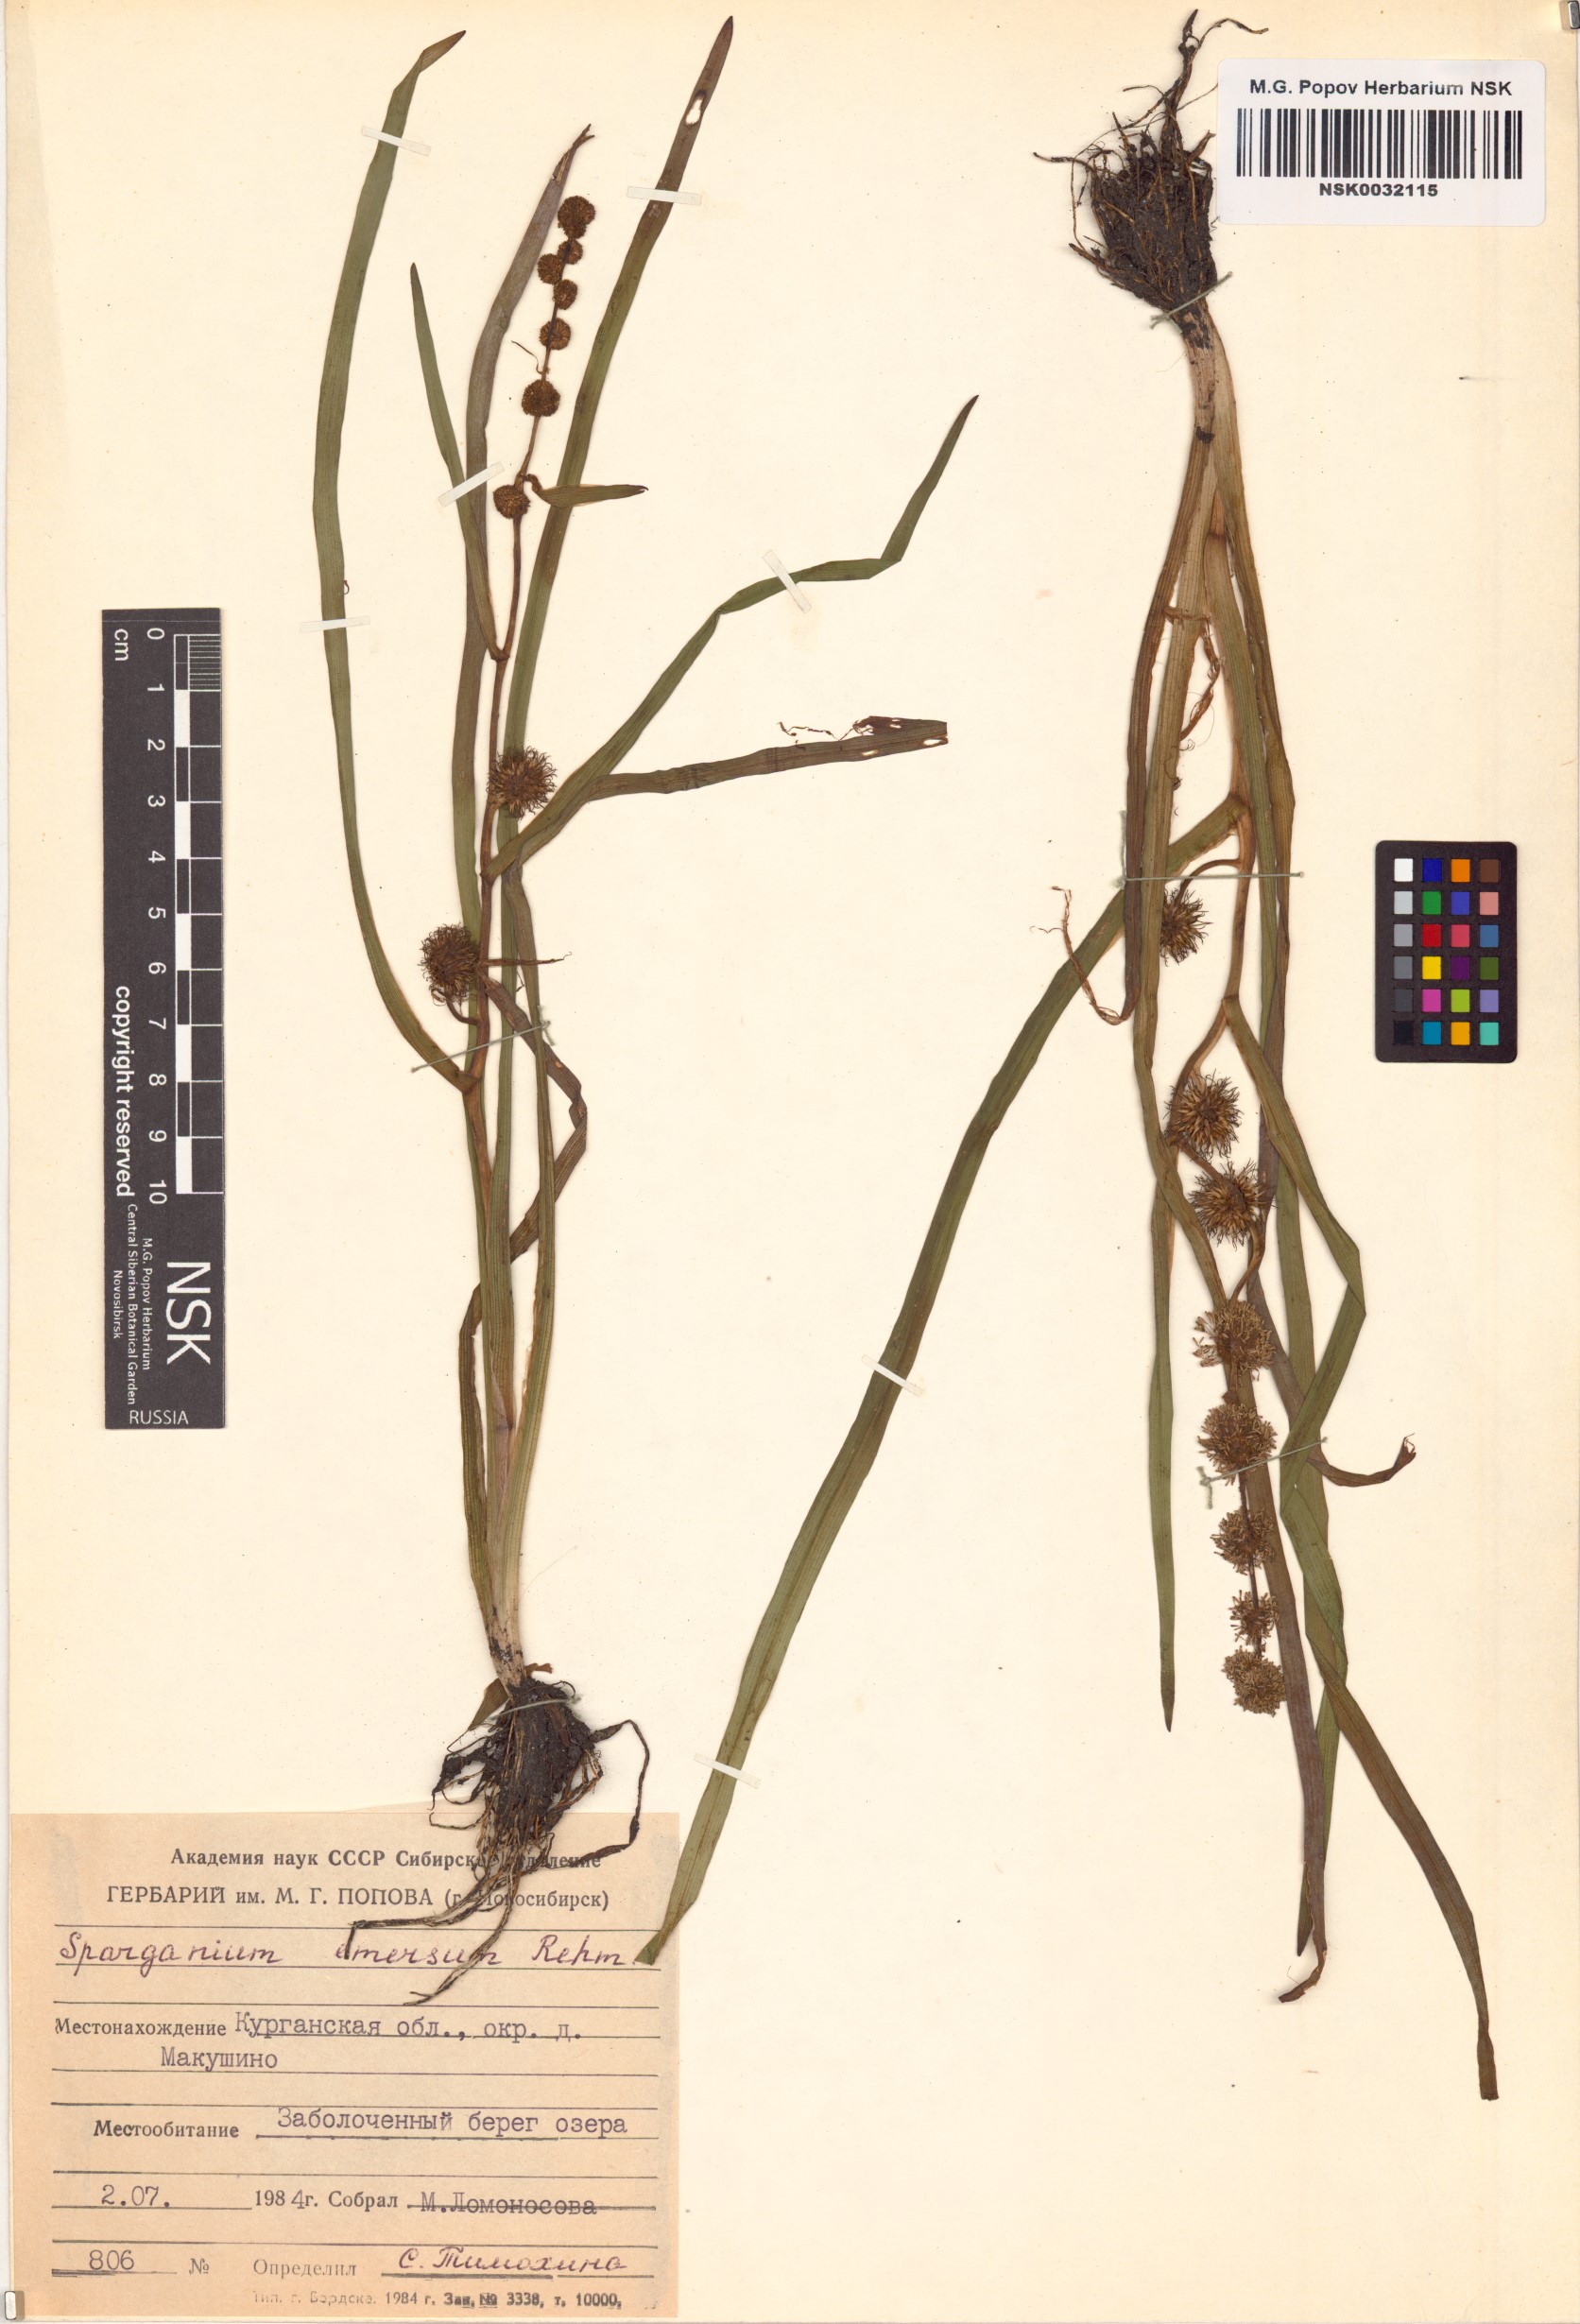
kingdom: Plantae
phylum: Tracheophyta
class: Liliopsida
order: Poales
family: Typhaceae
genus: Sparganium
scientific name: Sparganium emersum
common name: Unbranched bur-reed
